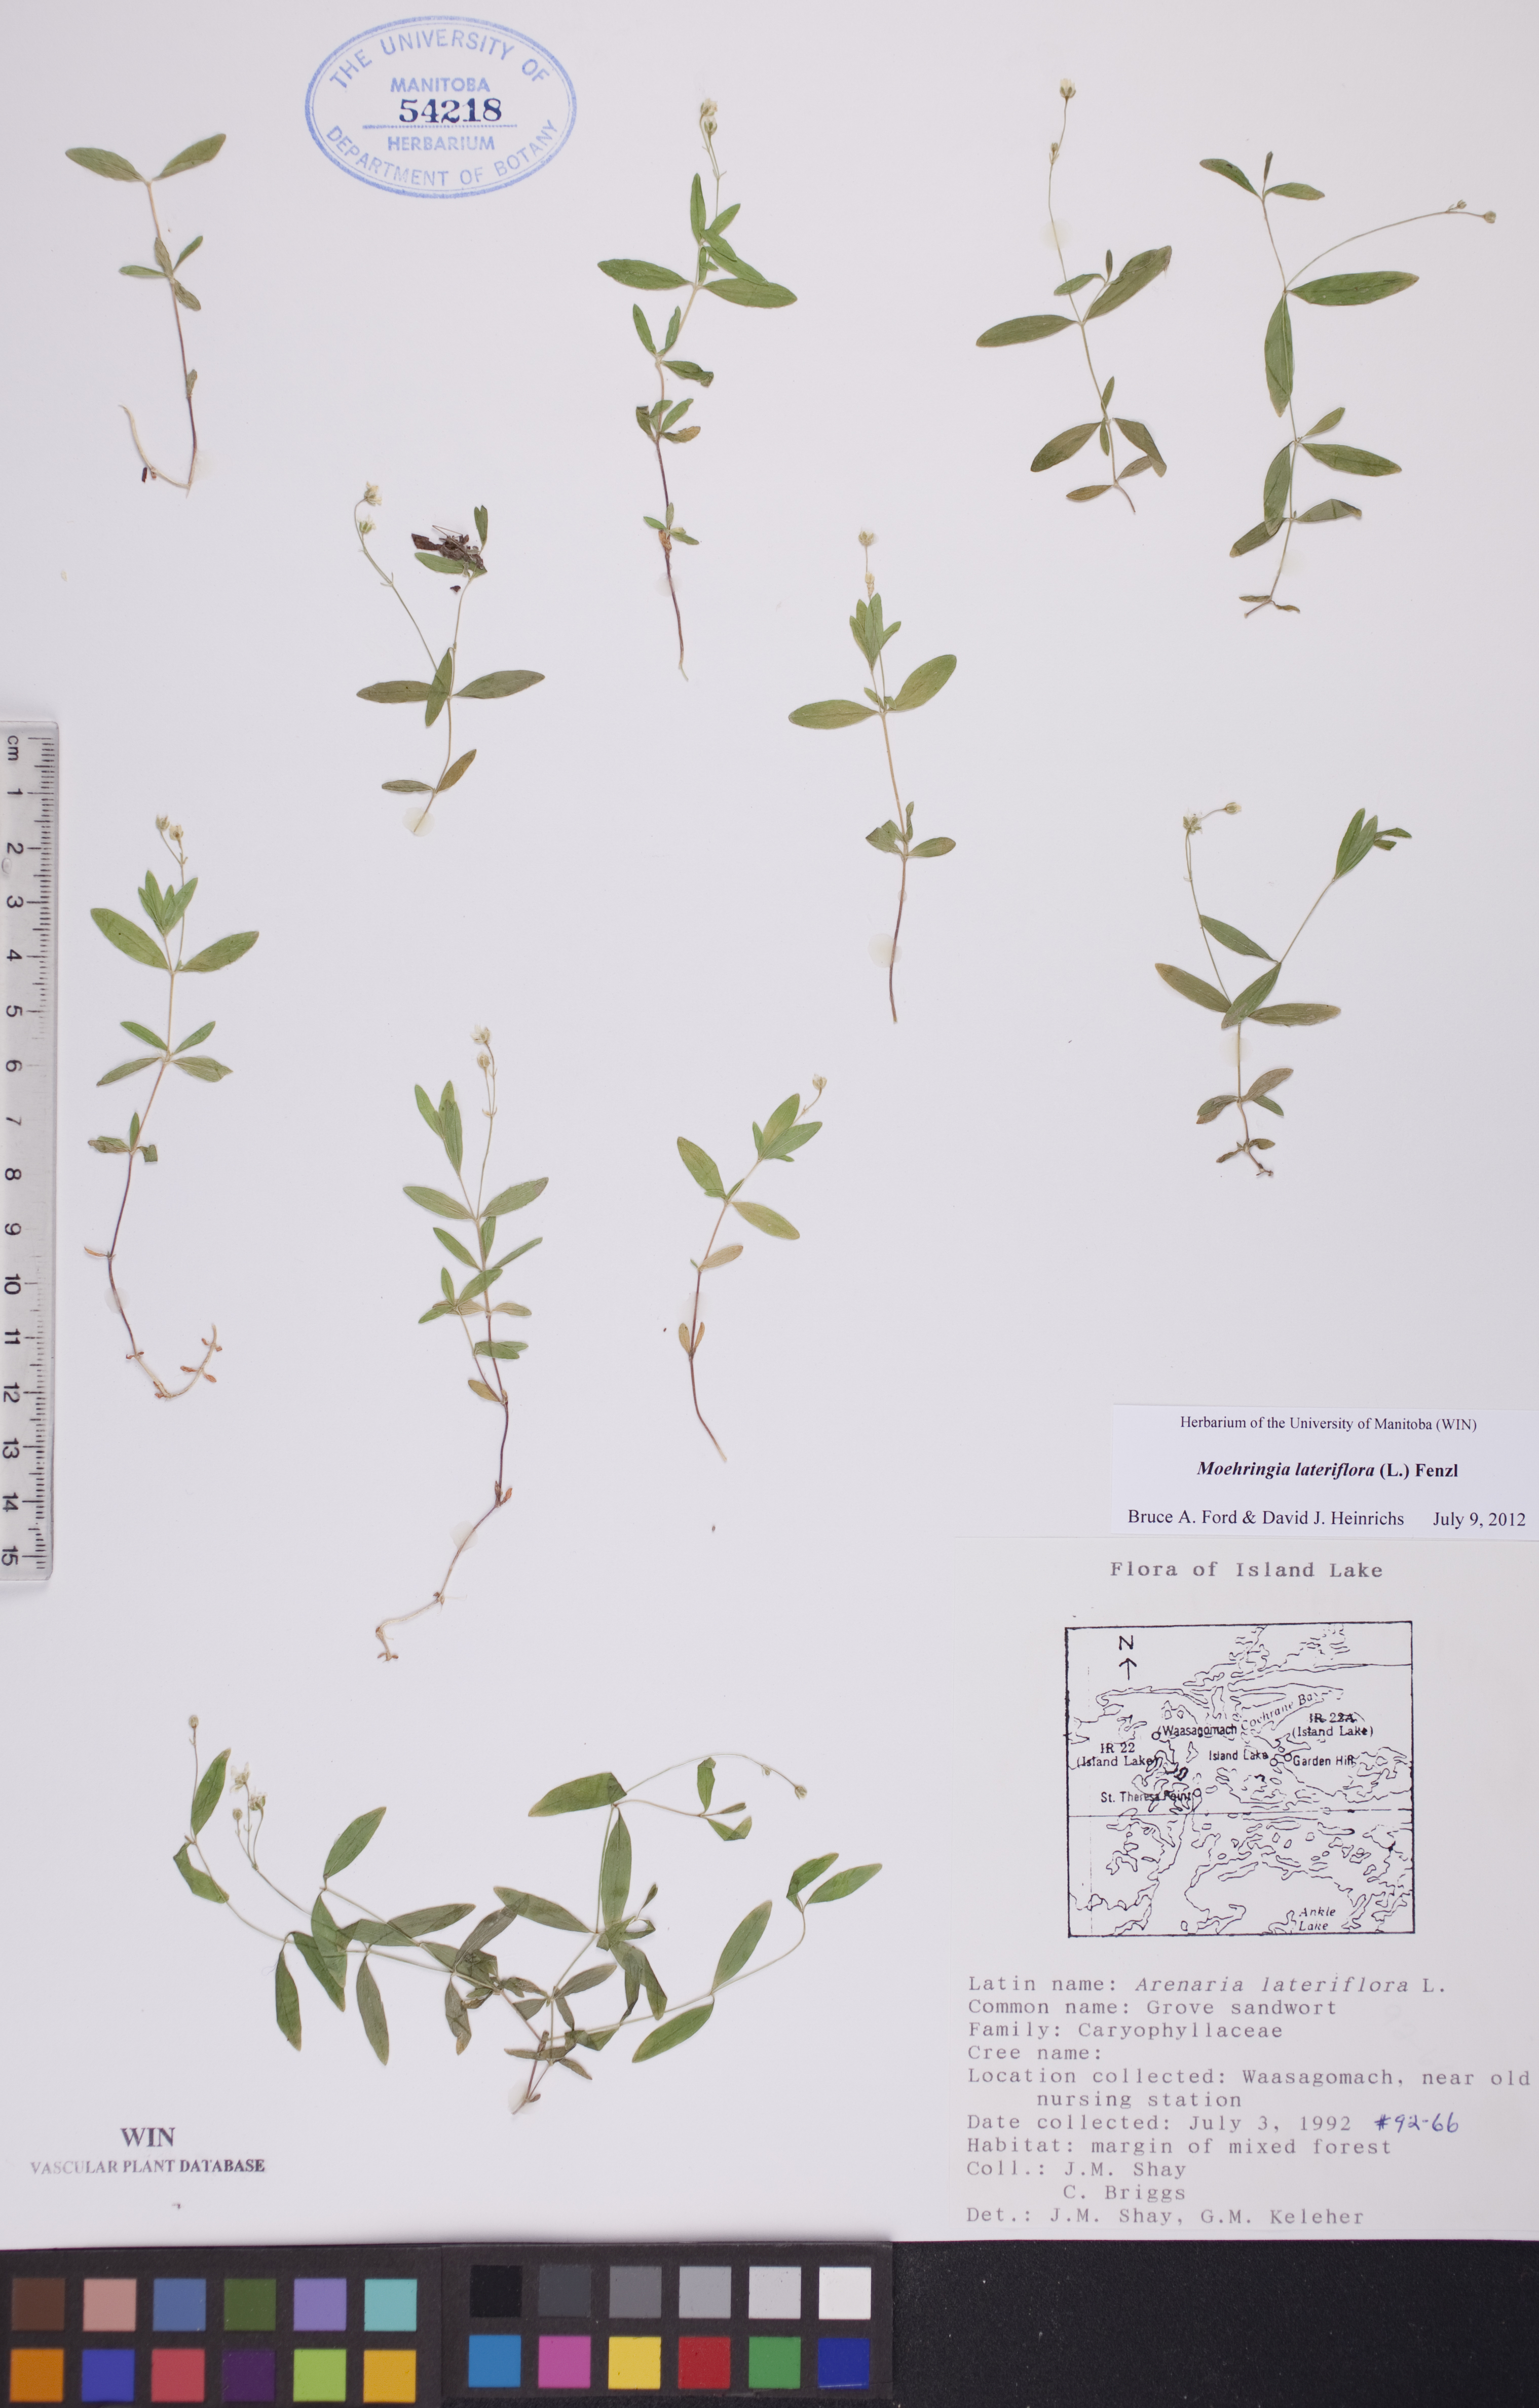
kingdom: Plantae
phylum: Tracheophyta
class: Magnoliopsida
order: Caryophyllales
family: Caryophyllaceae
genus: Moehringia
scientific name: Moehringia lateriflora
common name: Blunt-leaved sandwort
